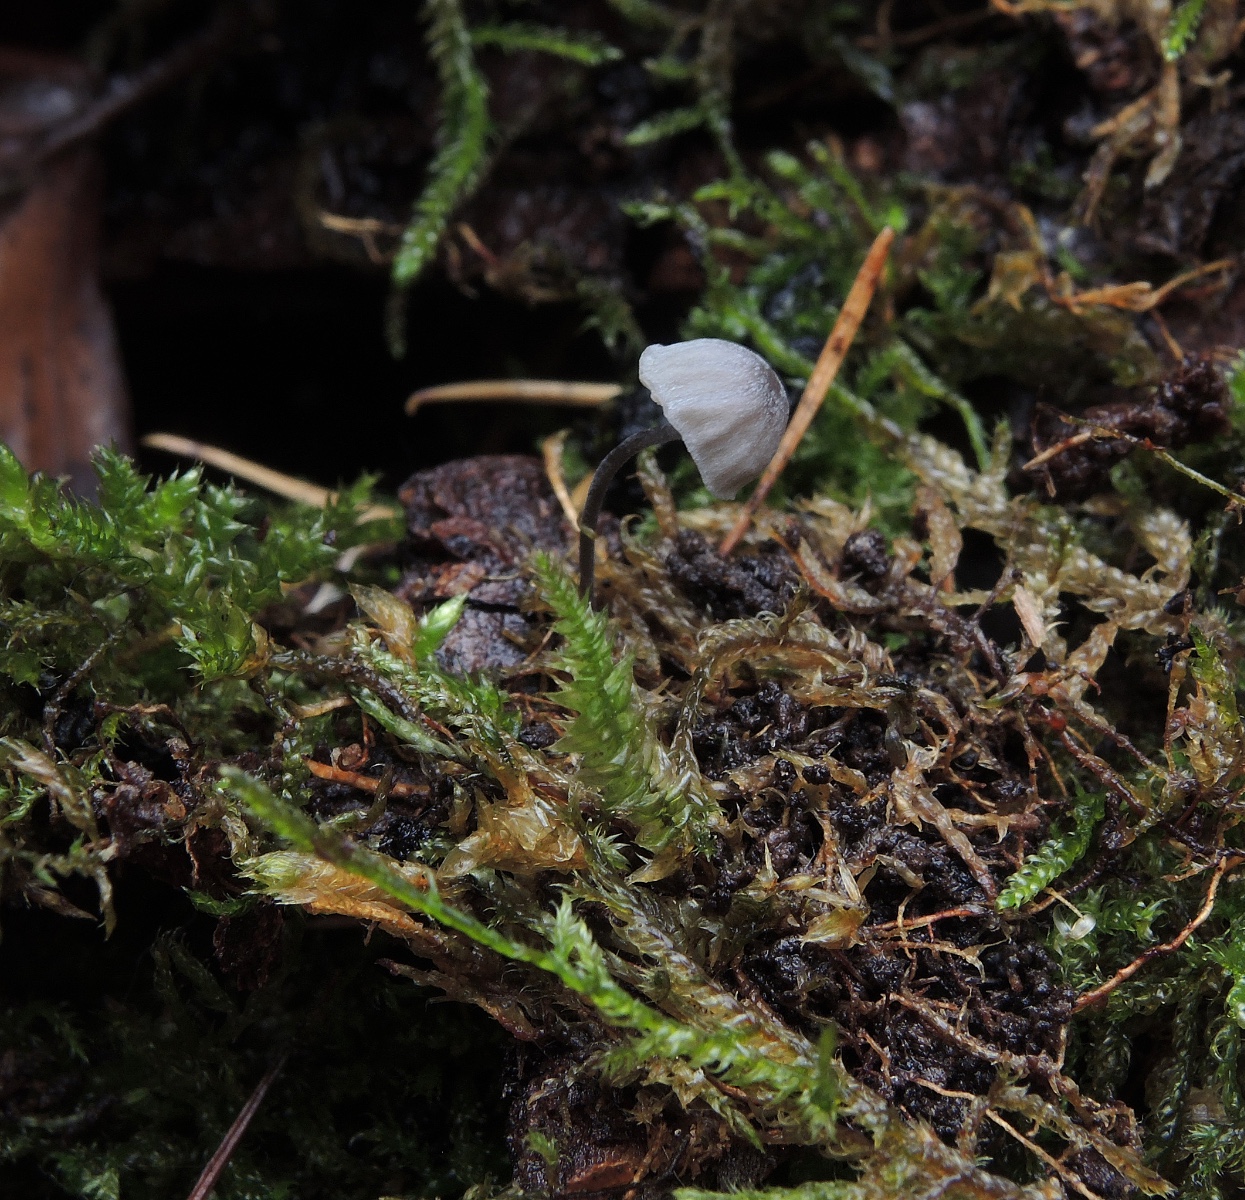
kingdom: Fungi
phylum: Basidiomycota
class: Agaricomycetes
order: Agaricales
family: Mycenaceae
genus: Mycena
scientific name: Mycena pseudocorticola
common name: gråblå bark-huesvamp
